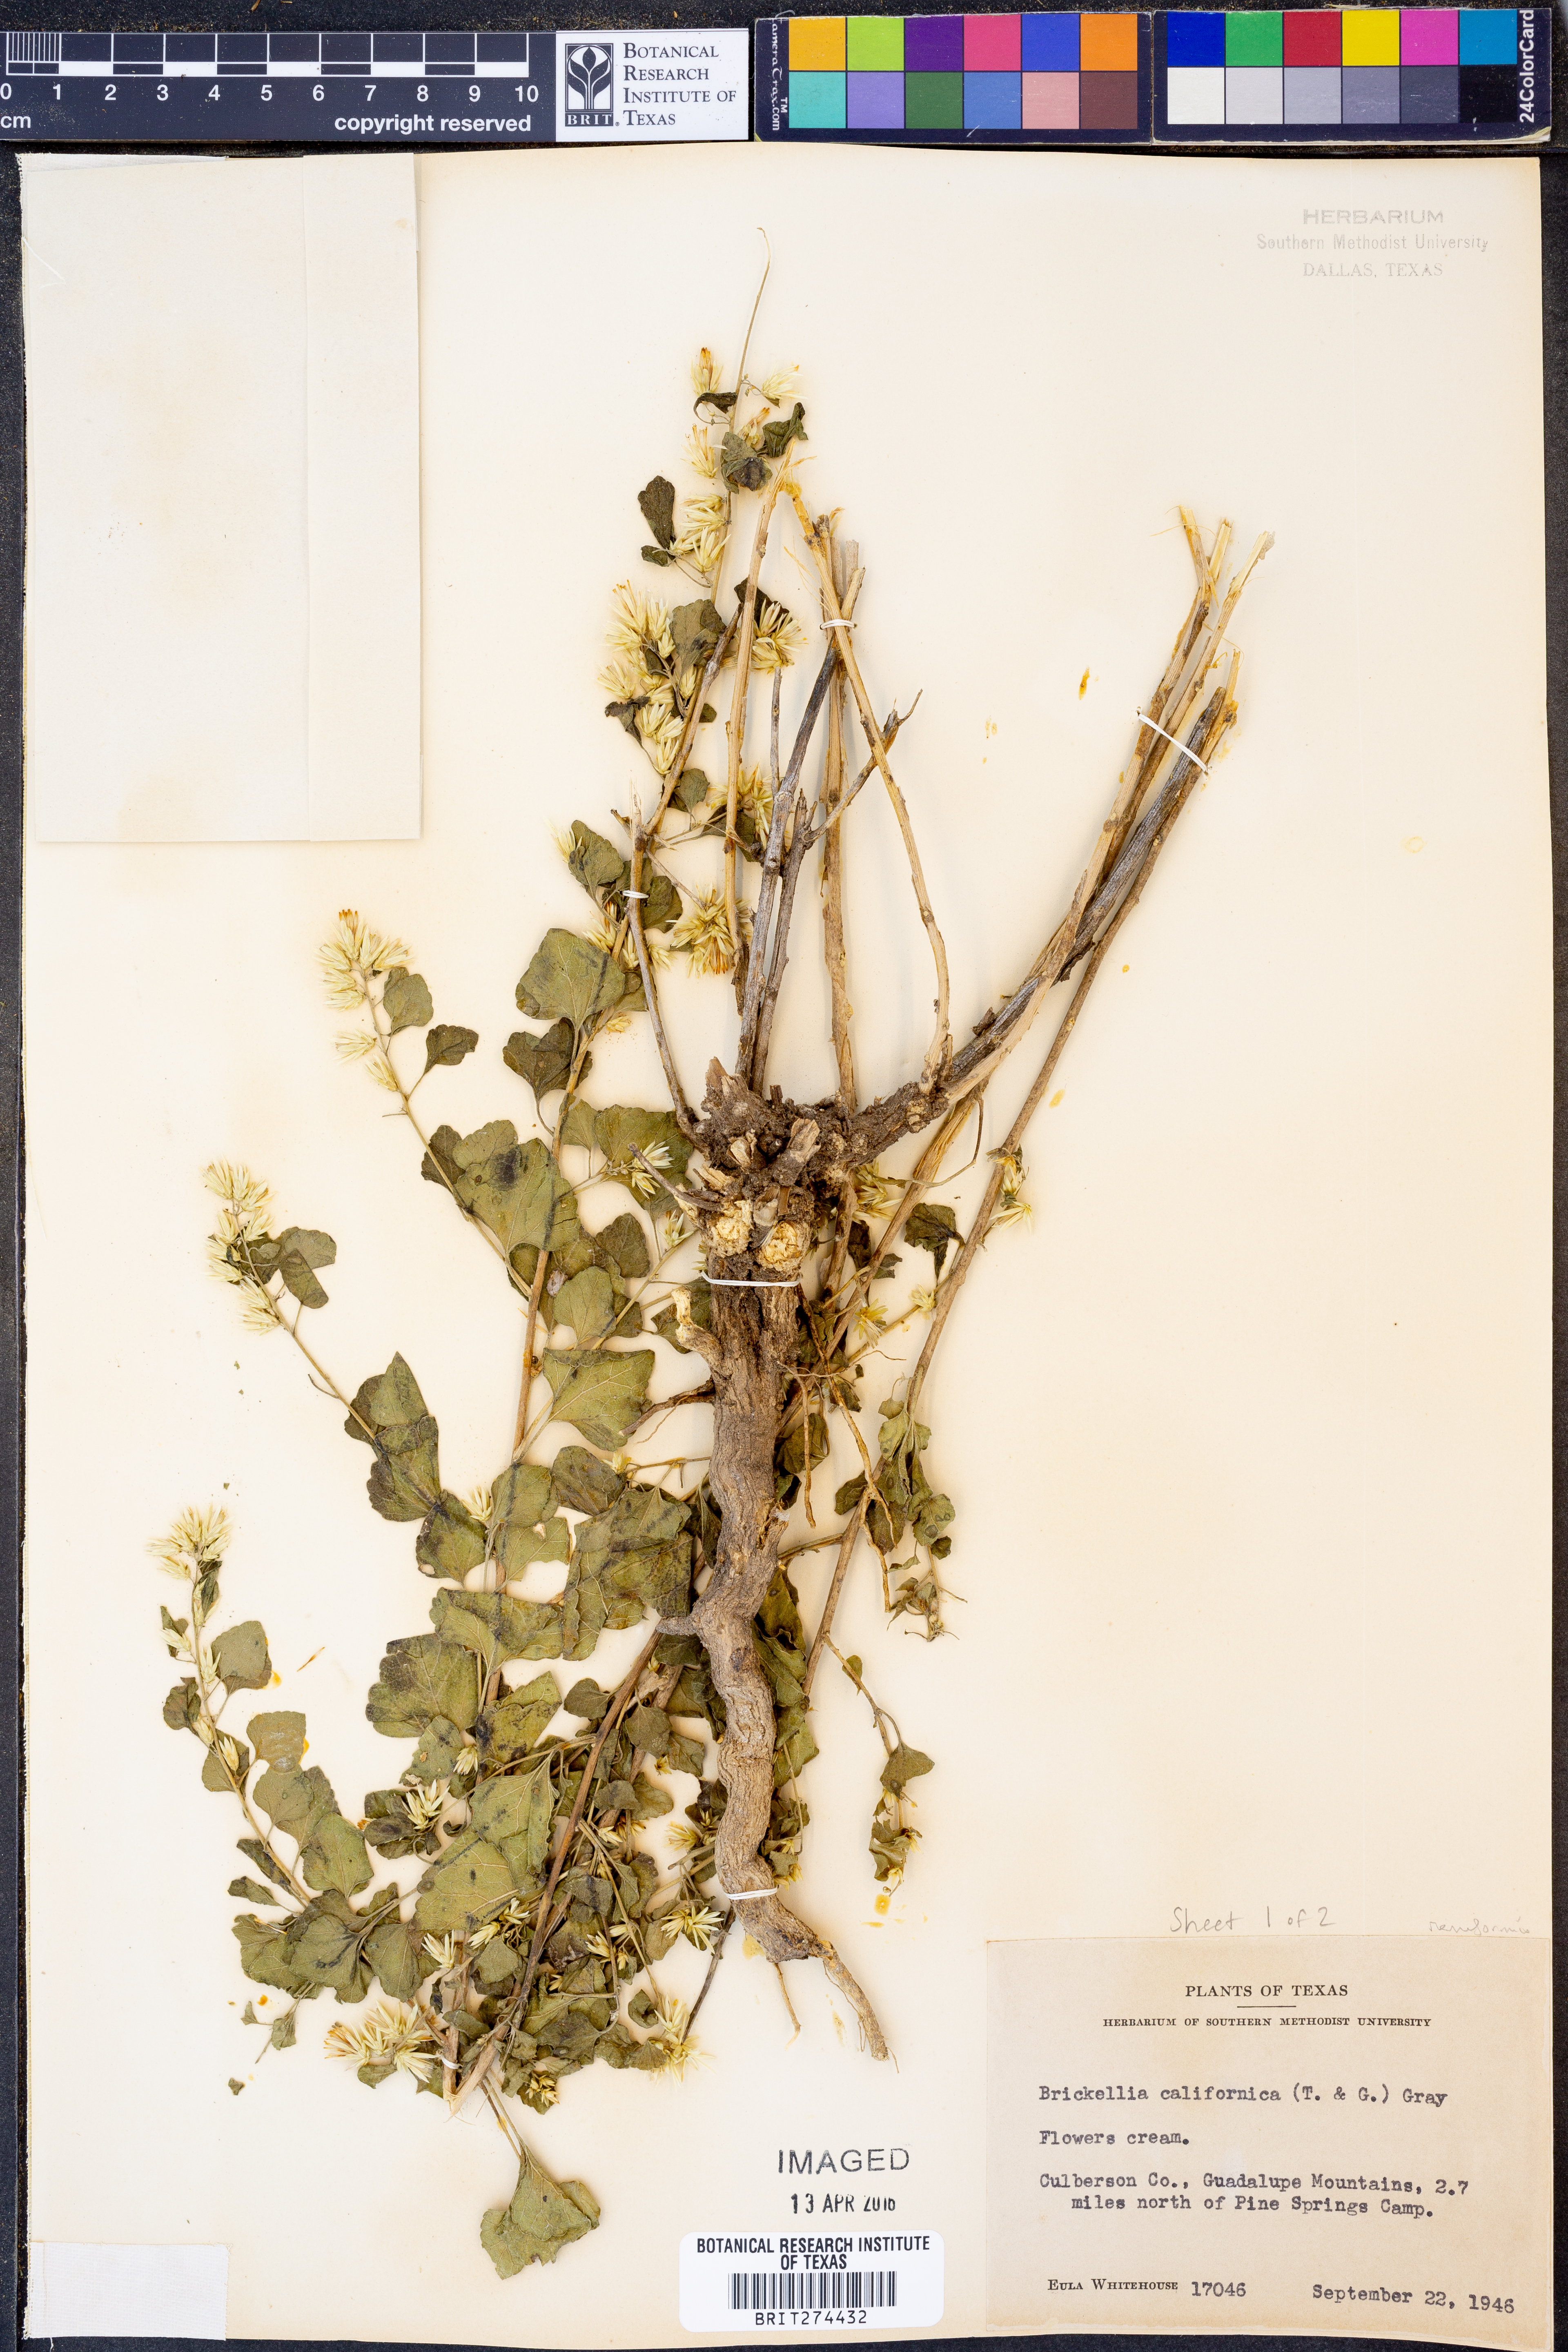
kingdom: Plantae
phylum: Tracheophyta
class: Magnoliopsida
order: Asterales
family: Asteraceae
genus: Brickellia
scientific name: Brickellia californica
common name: California brickellbush
